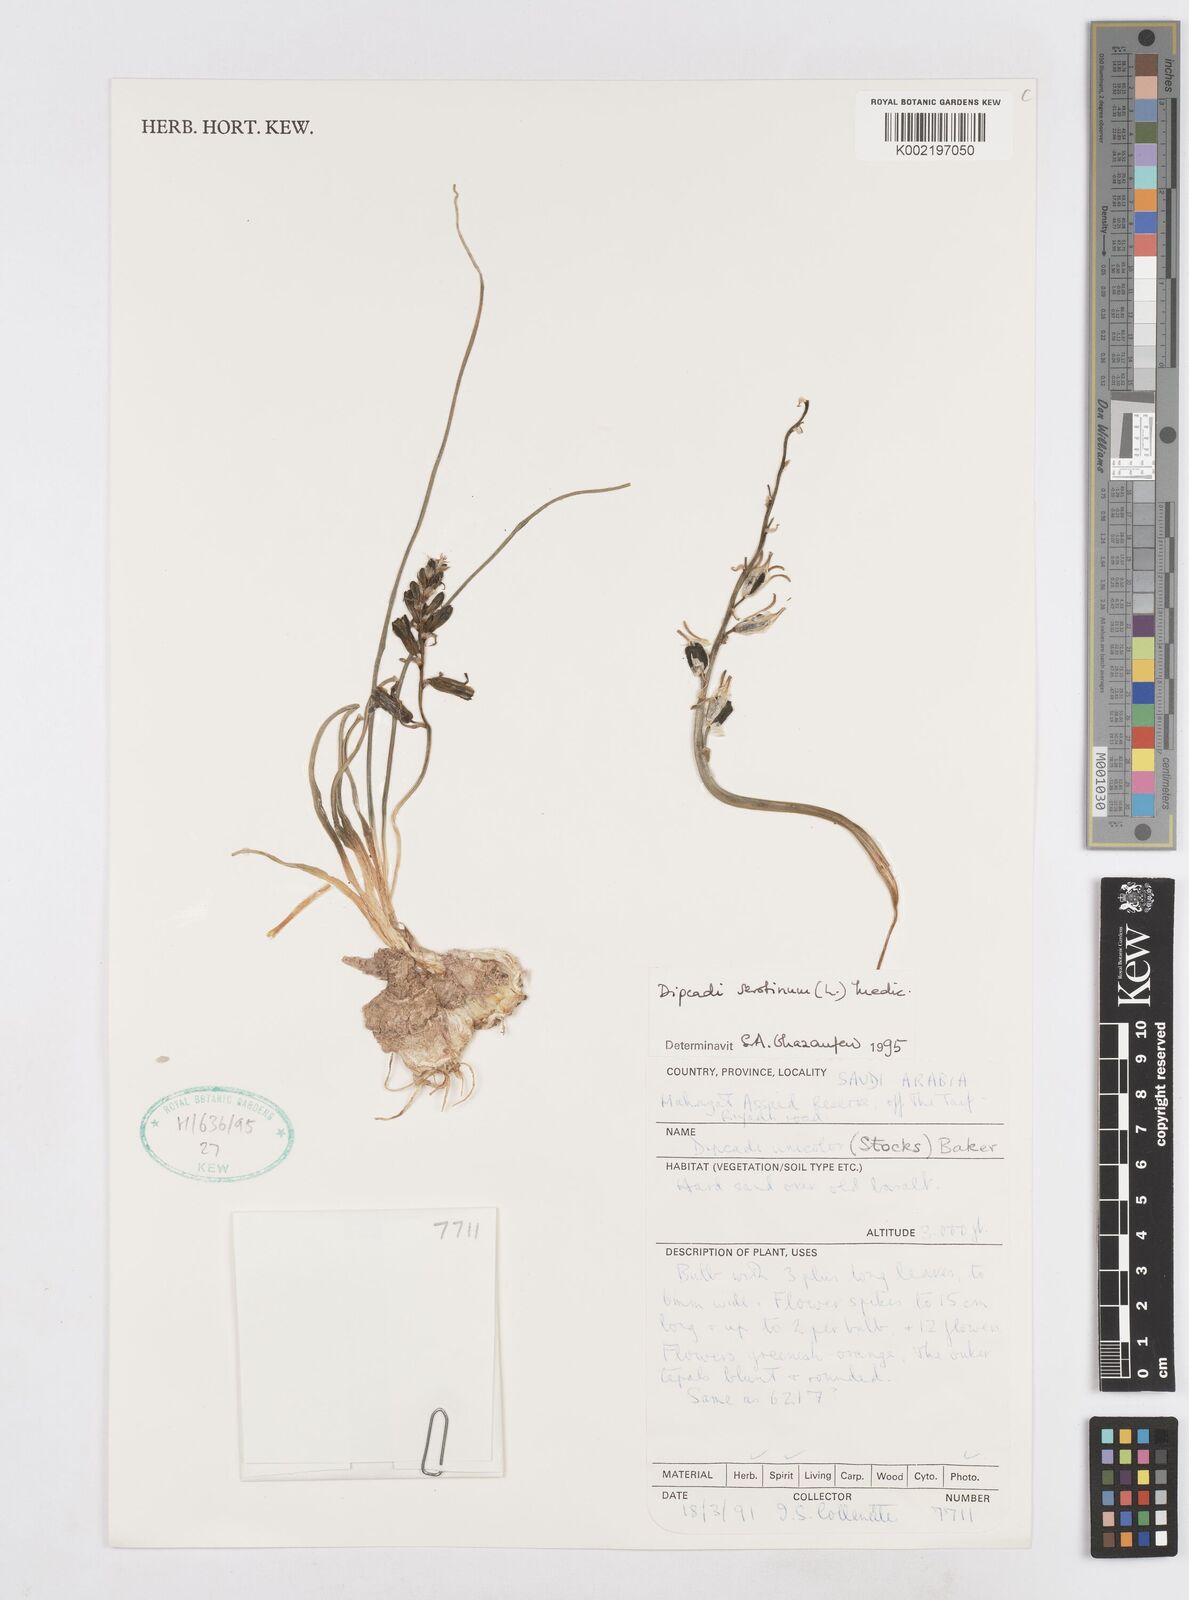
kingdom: Plantae
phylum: Tracheophyta
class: Liliopsida
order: Asparagales
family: Asparagaceae
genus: Dipcadi
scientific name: Dipcadi serotinum
